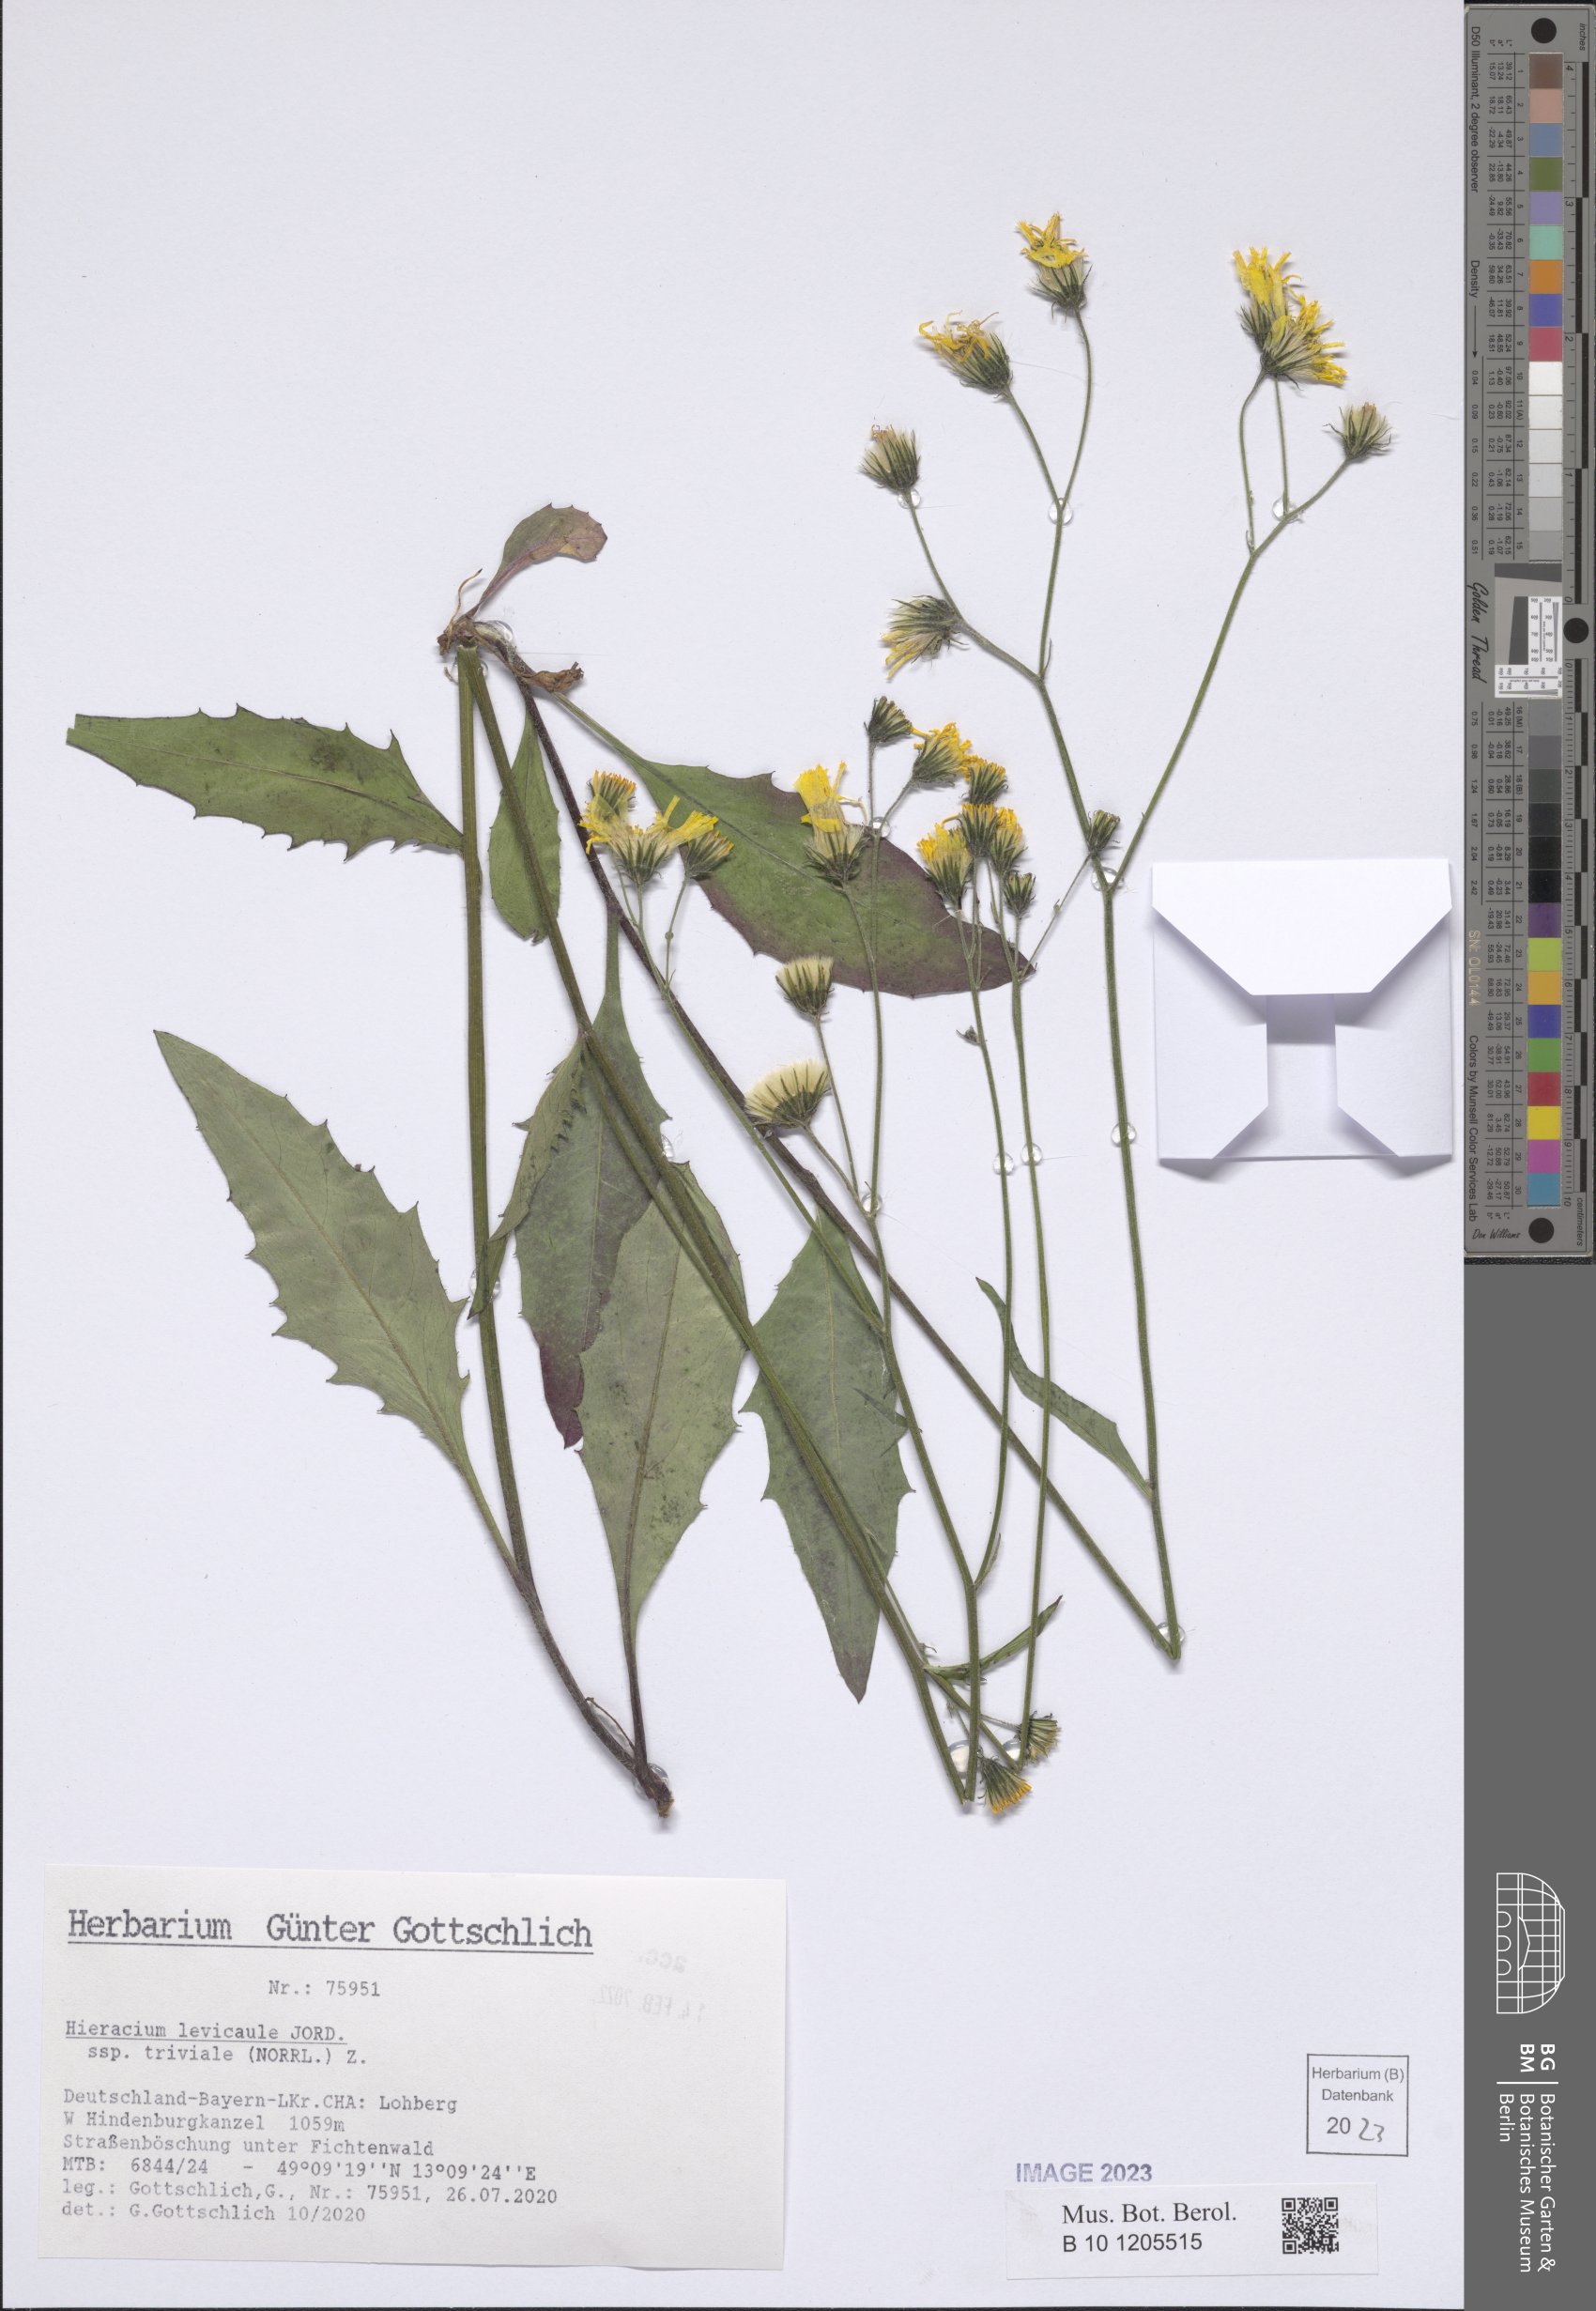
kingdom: Plantae
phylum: Tracheophyta
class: Magnoliopsida
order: Asterales
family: Asteraceae
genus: Hieracium
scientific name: Hieracium levicaule
